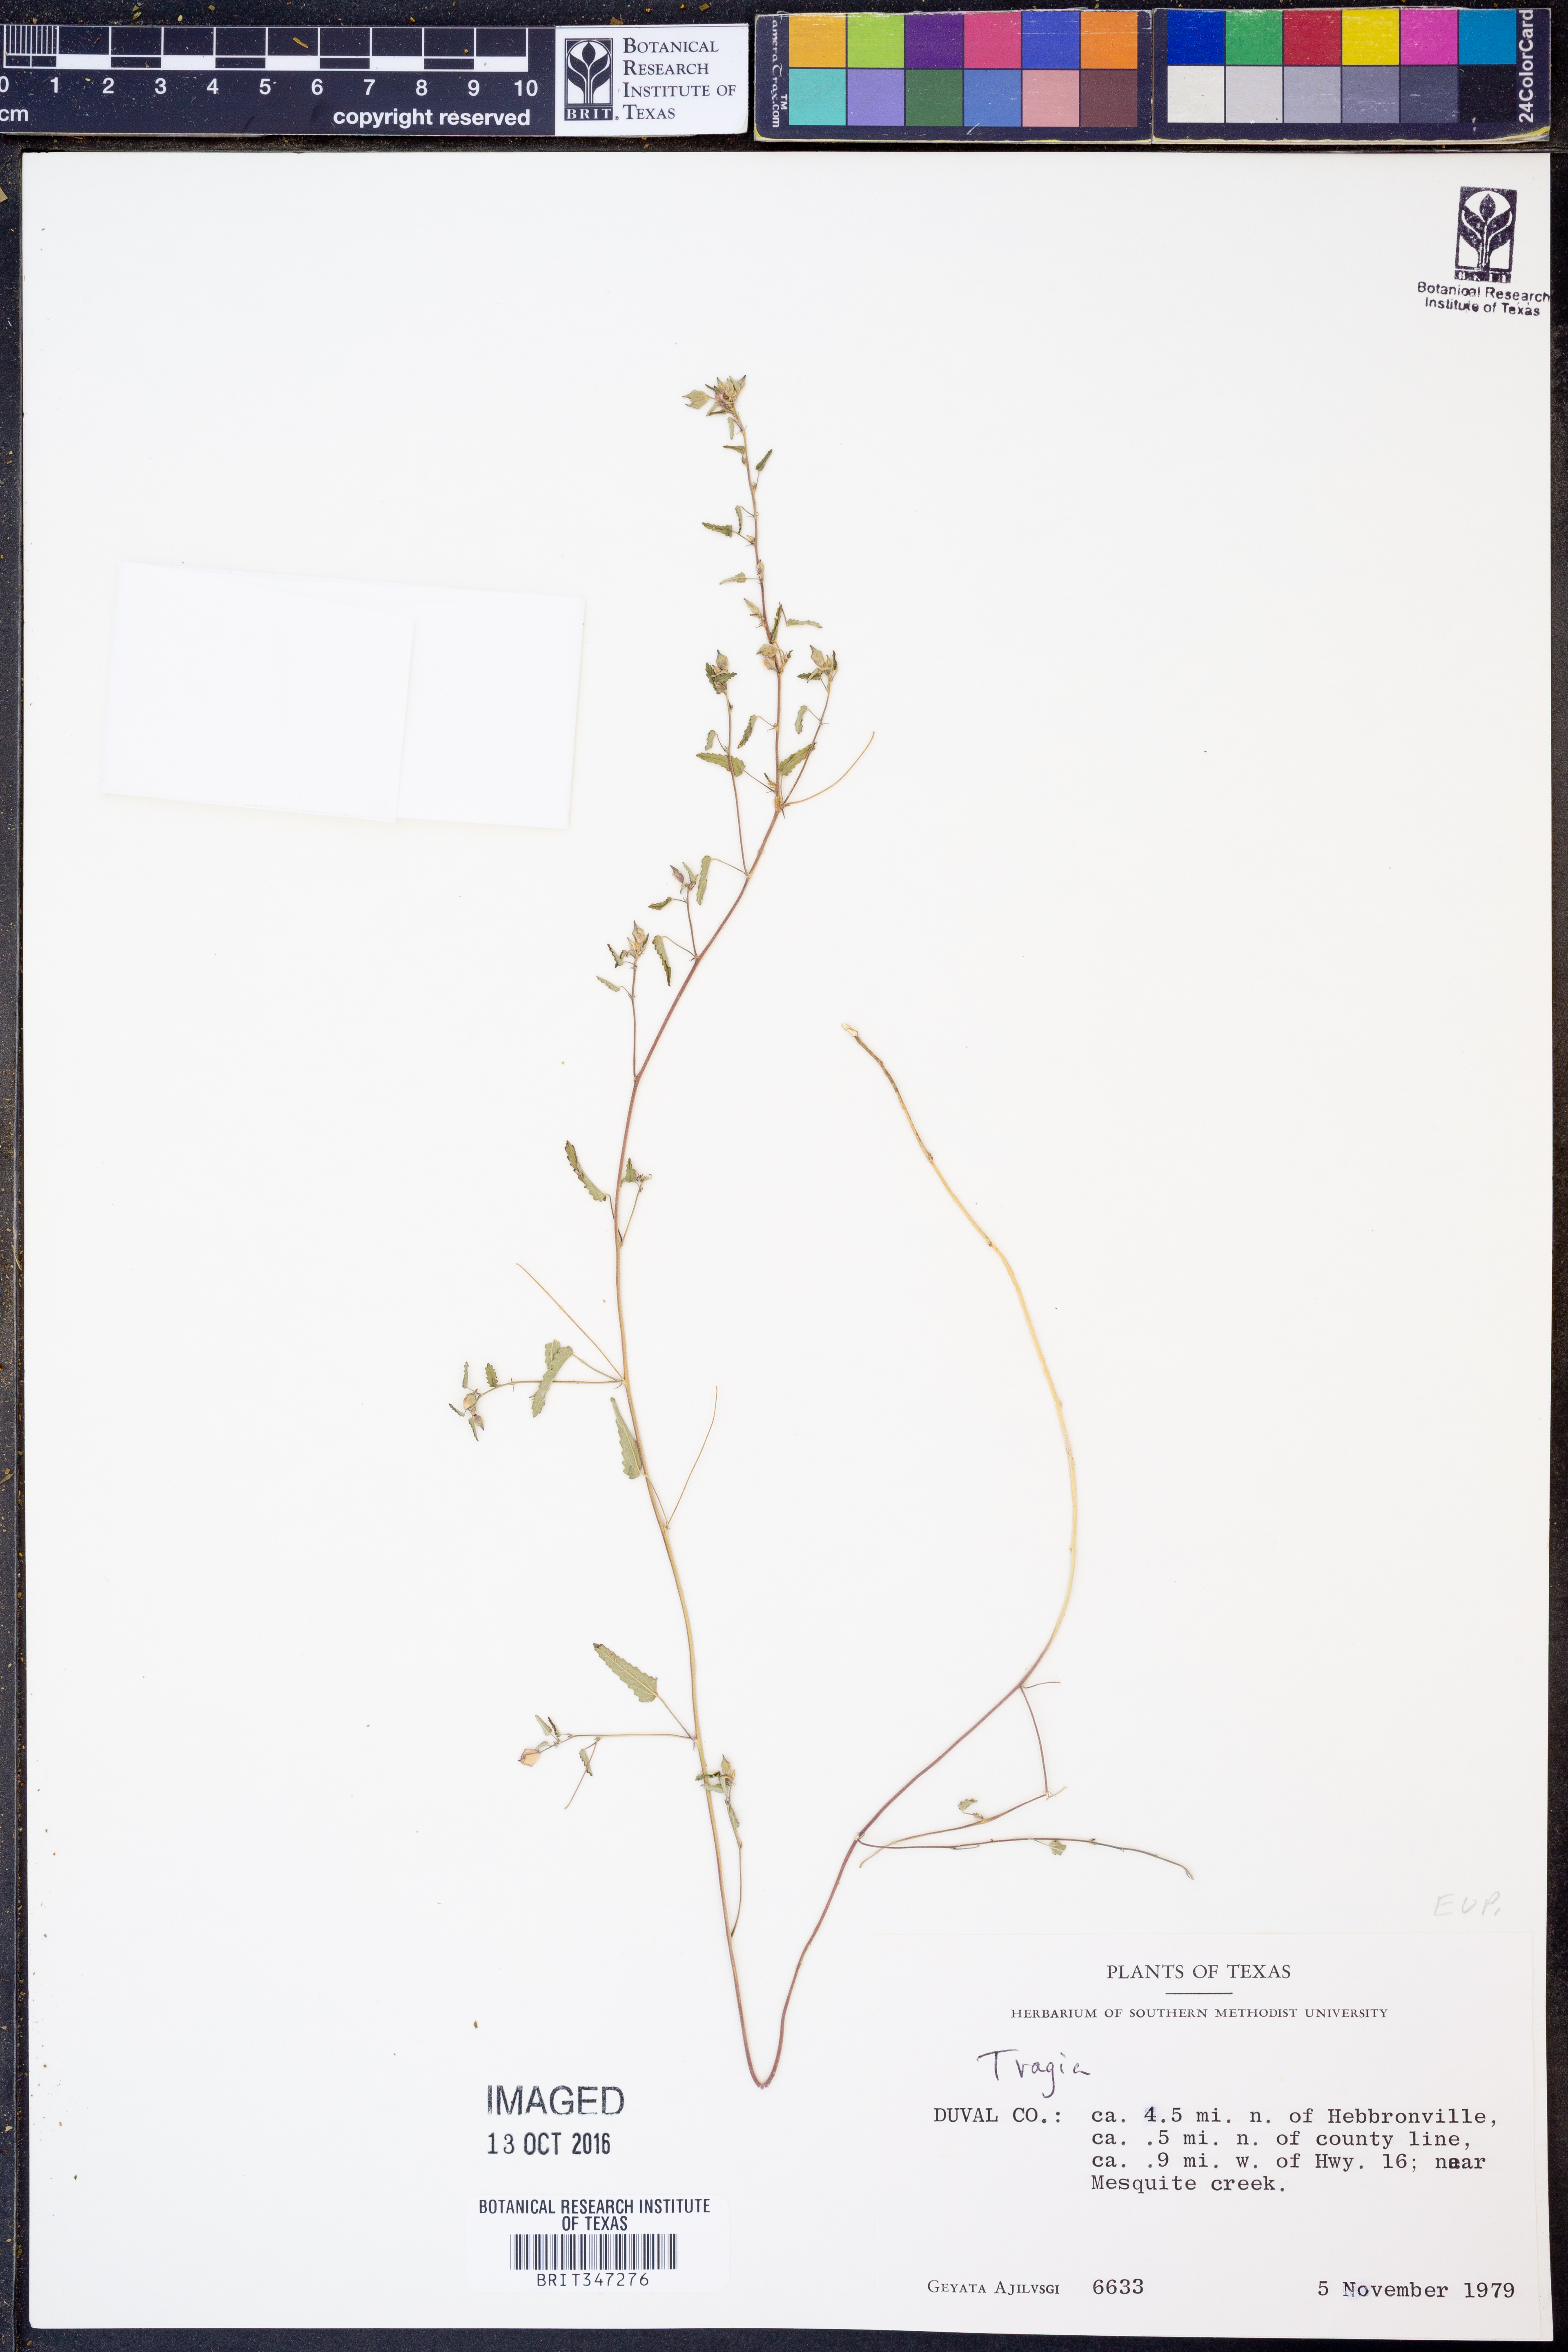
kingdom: Plantae
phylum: Tracheophyta
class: Magnoliopsida
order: Malpighiales
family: Euphorbiaceae
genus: Tragia
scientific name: Tragia
